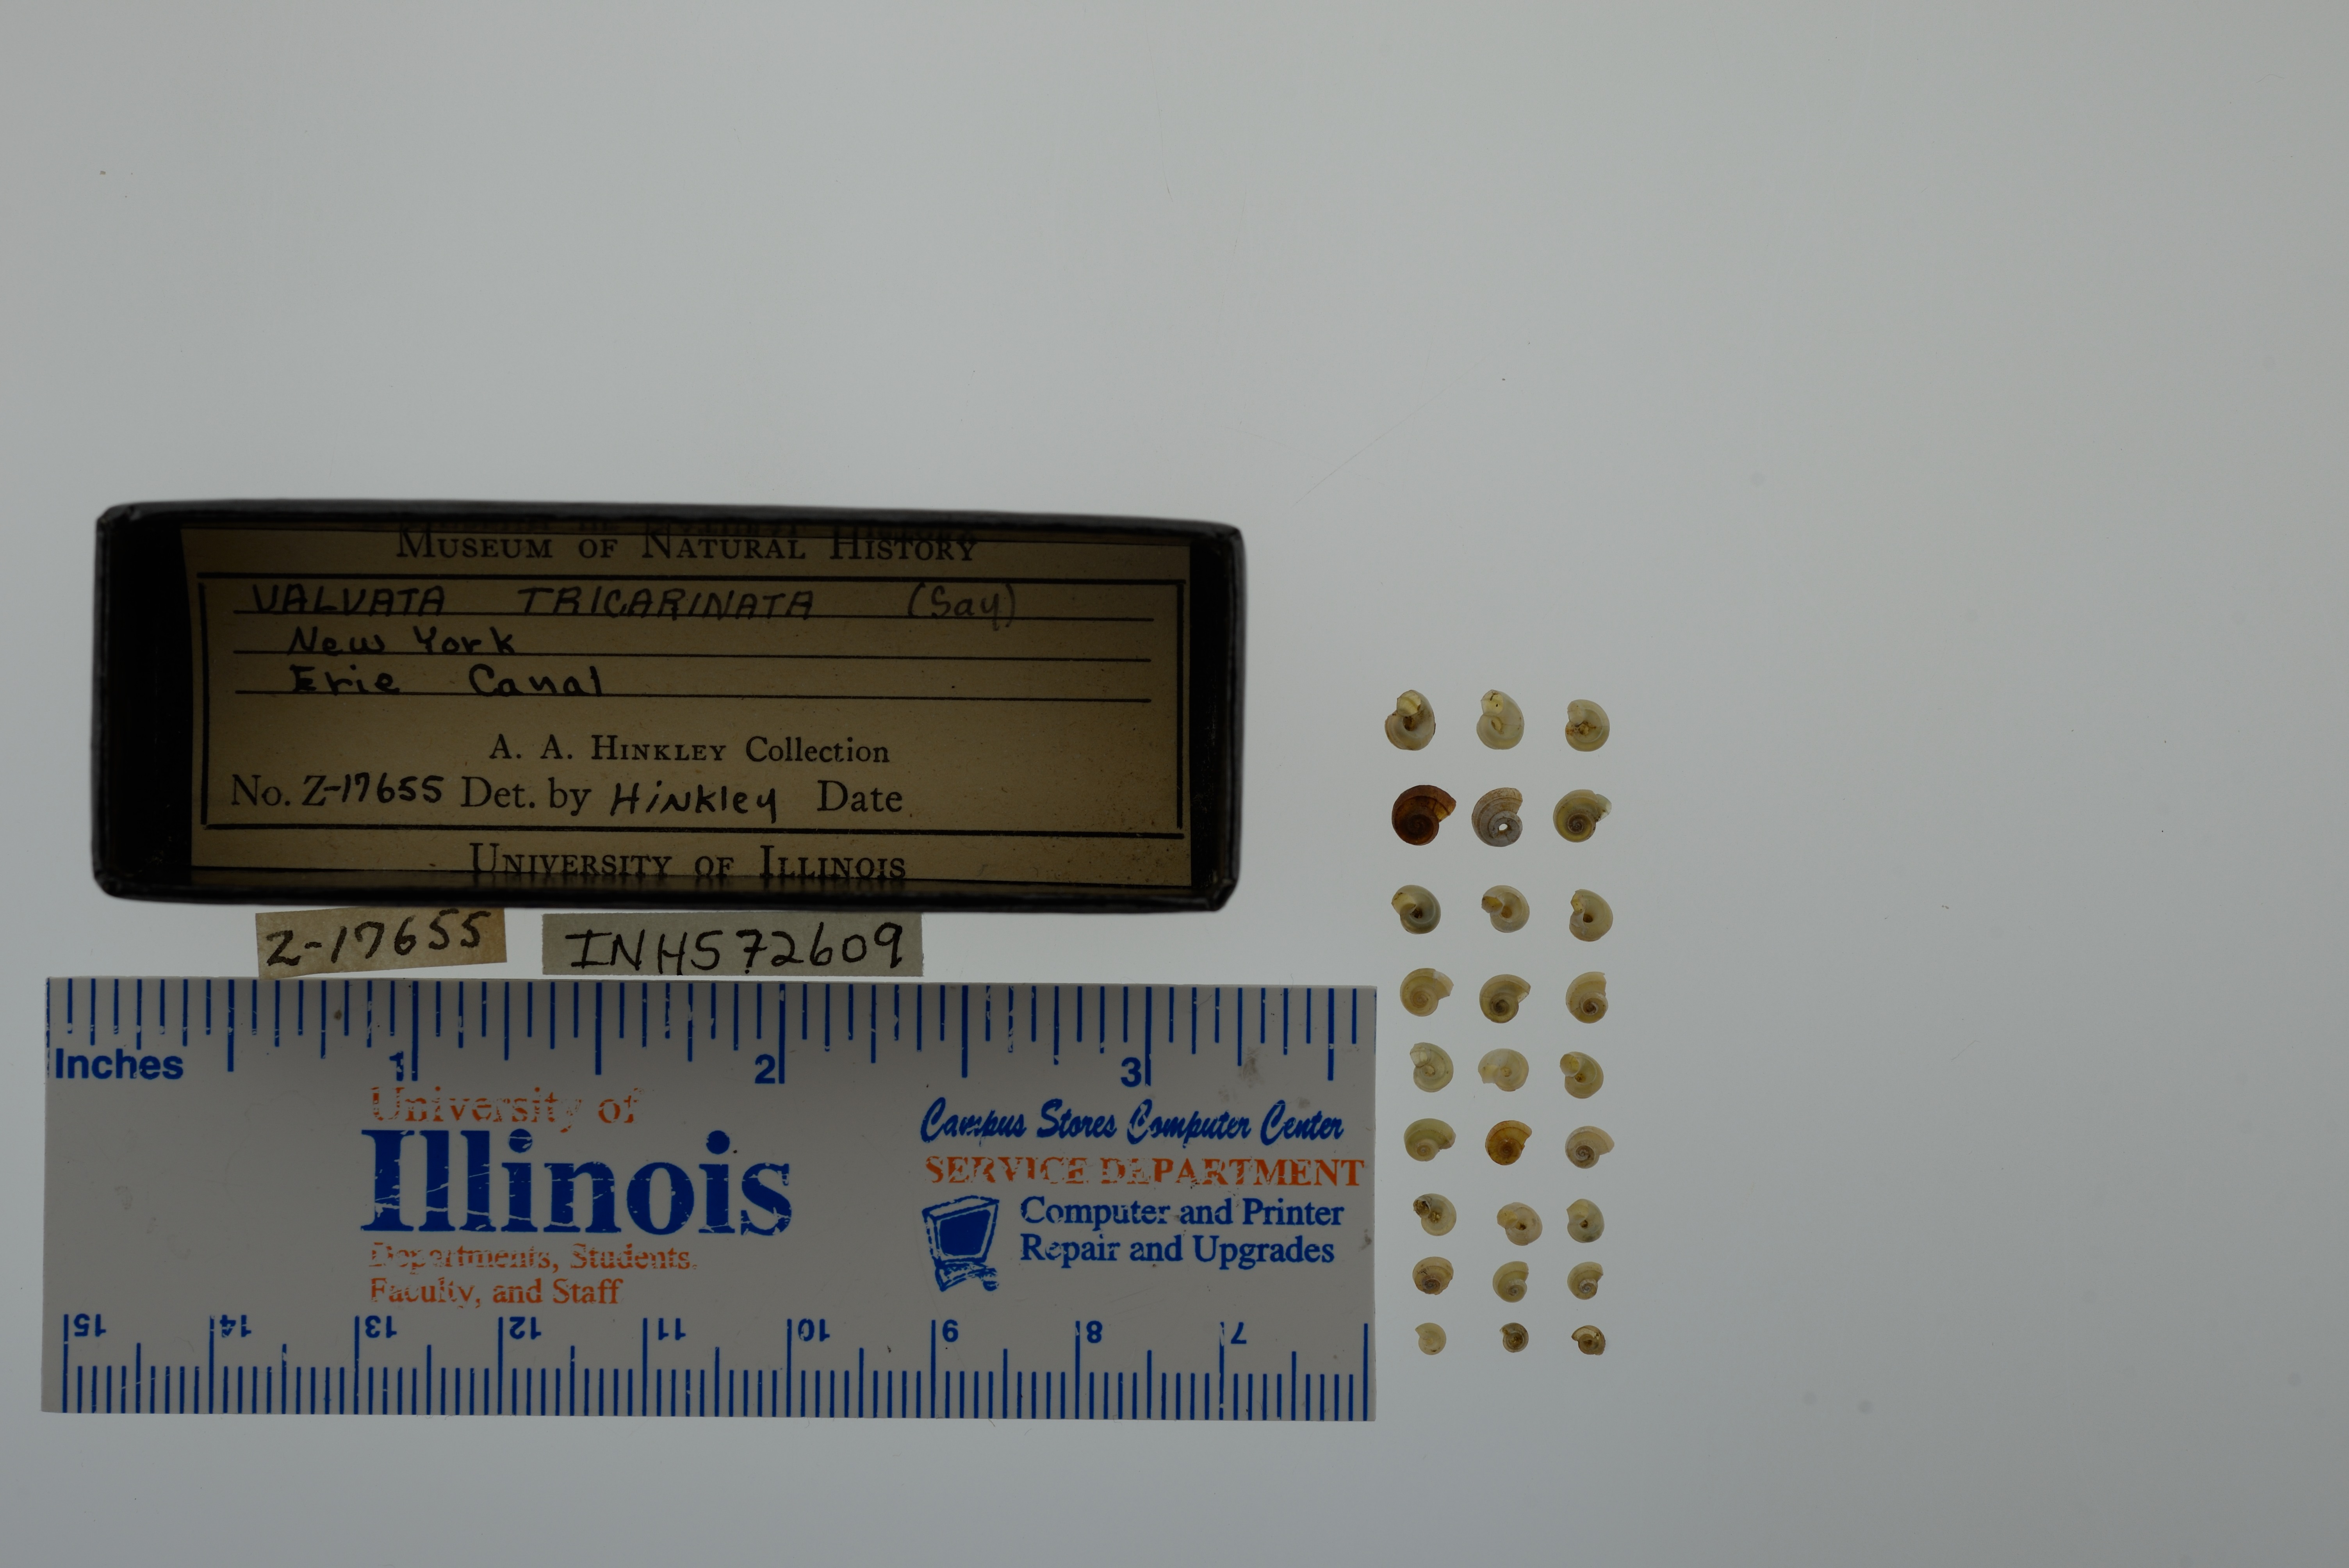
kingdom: Animalia
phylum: Mollusca
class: Gastropoda
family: Valvatidae
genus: Valvata
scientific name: Valvata tricarinata
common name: Three-ridge valvata
